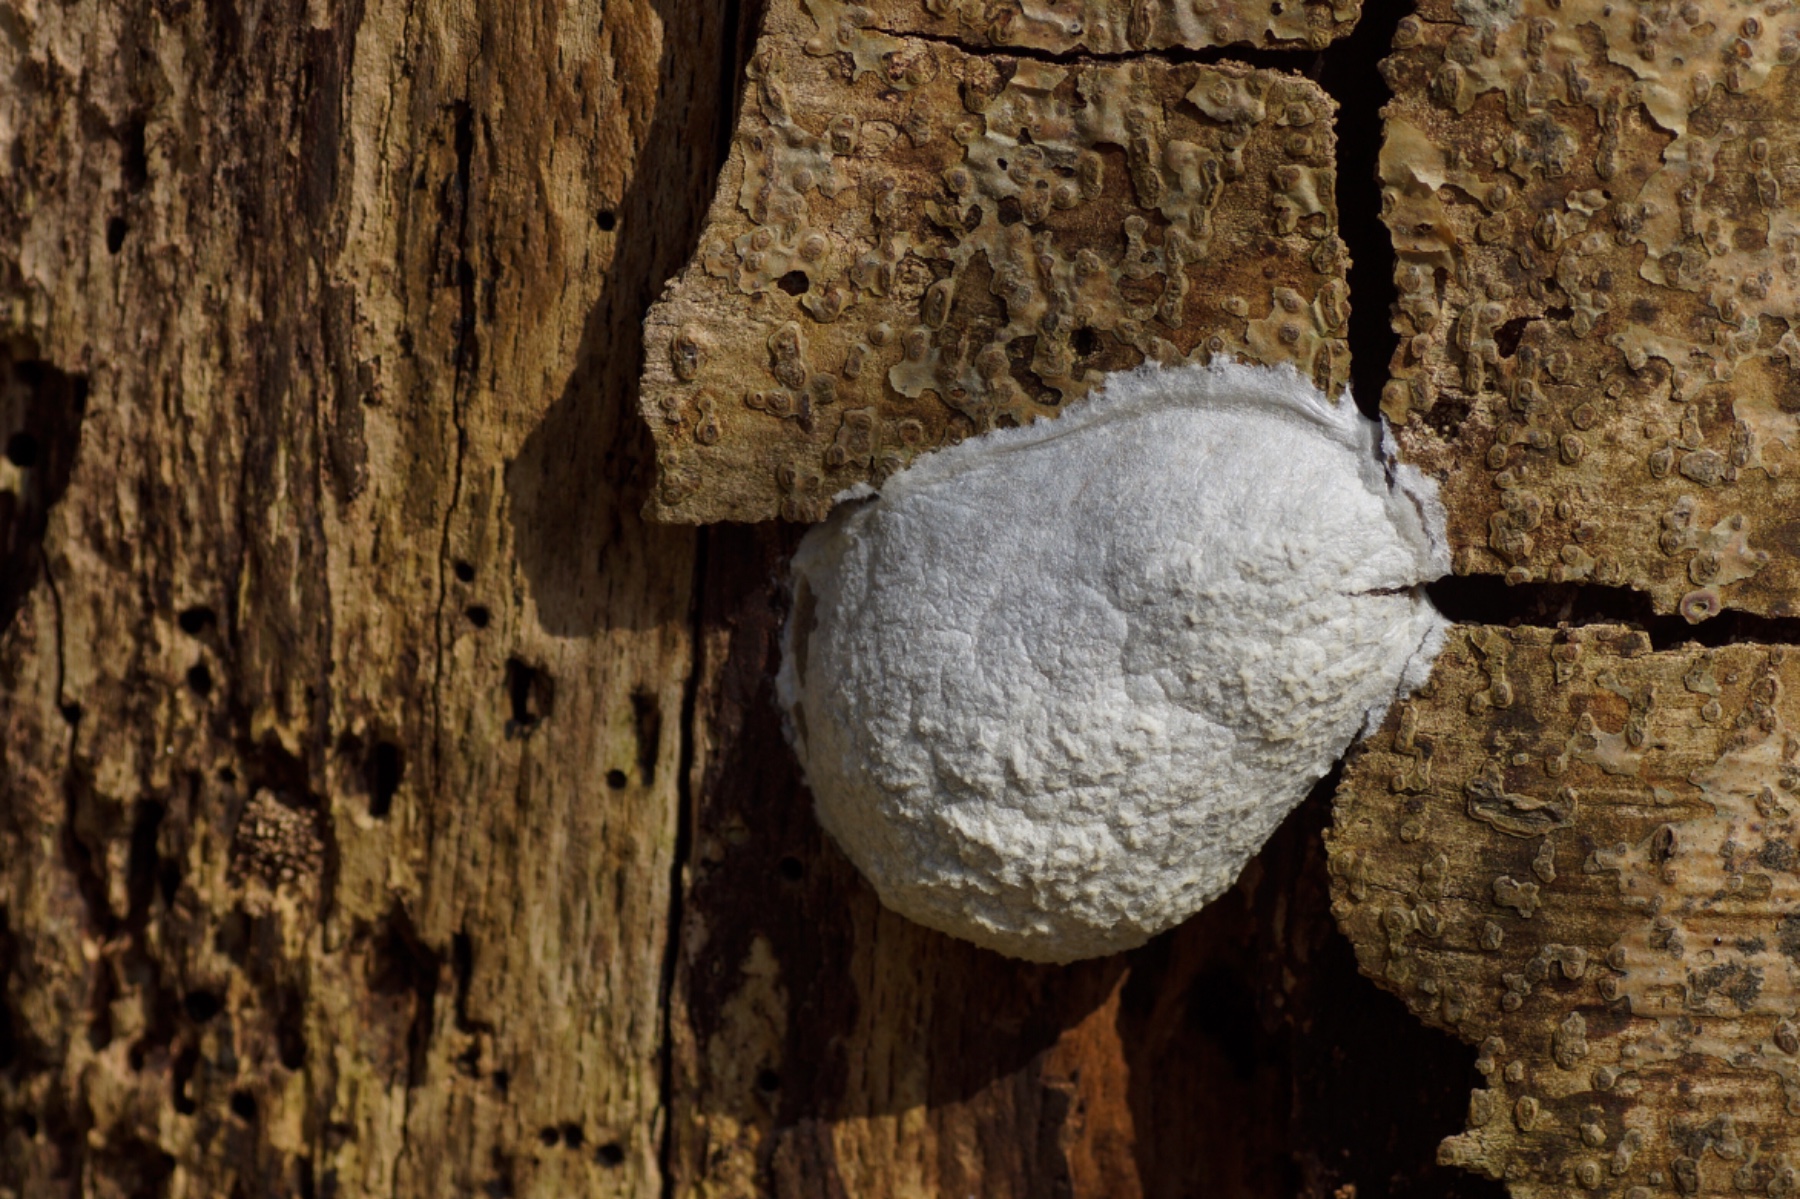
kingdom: Protozoa
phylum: Mycetozoa
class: Myxomycetes
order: Cribrariales
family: Tubiferaceae
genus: Reticularia
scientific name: Reticularia lycoperdon
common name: skinnende støvpude
